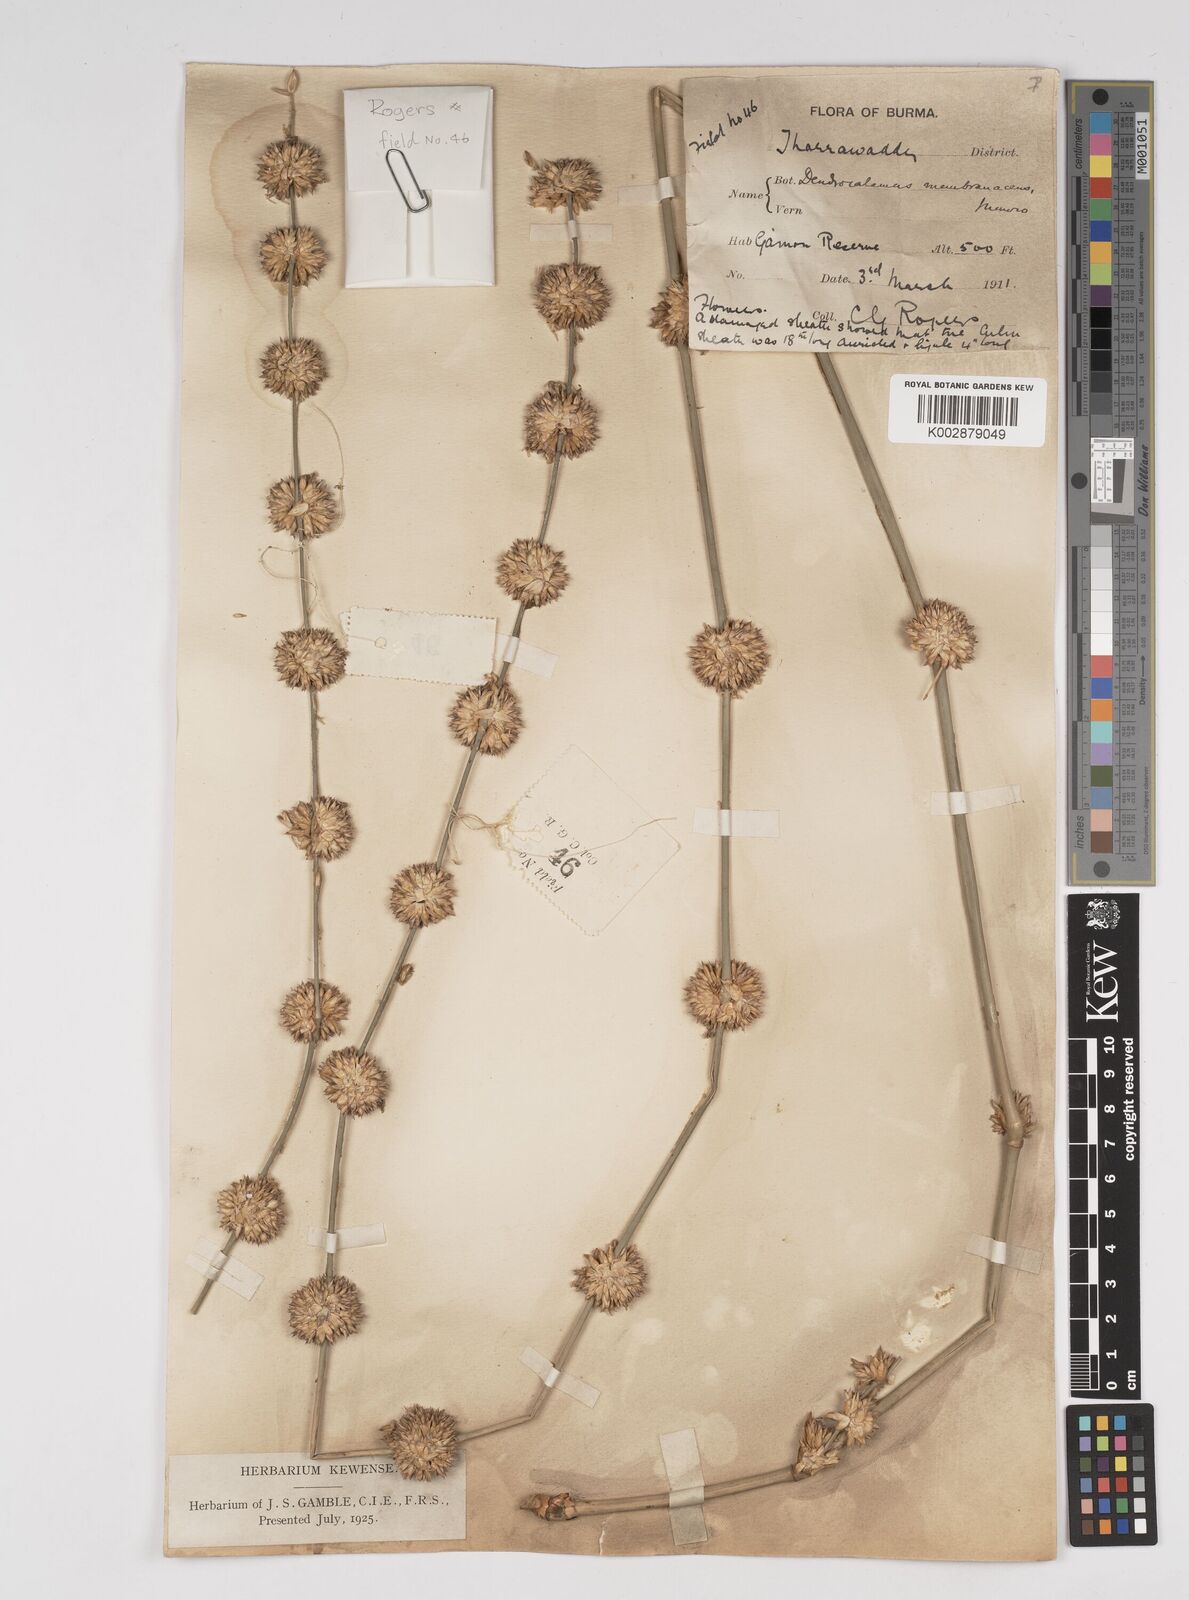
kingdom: Plantae
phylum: Tracheophyta
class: Liliopsida
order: Poales
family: Poaceae
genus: Dendrocalamus
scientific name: Dendrocalamus membranaceus
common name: White bamboo
